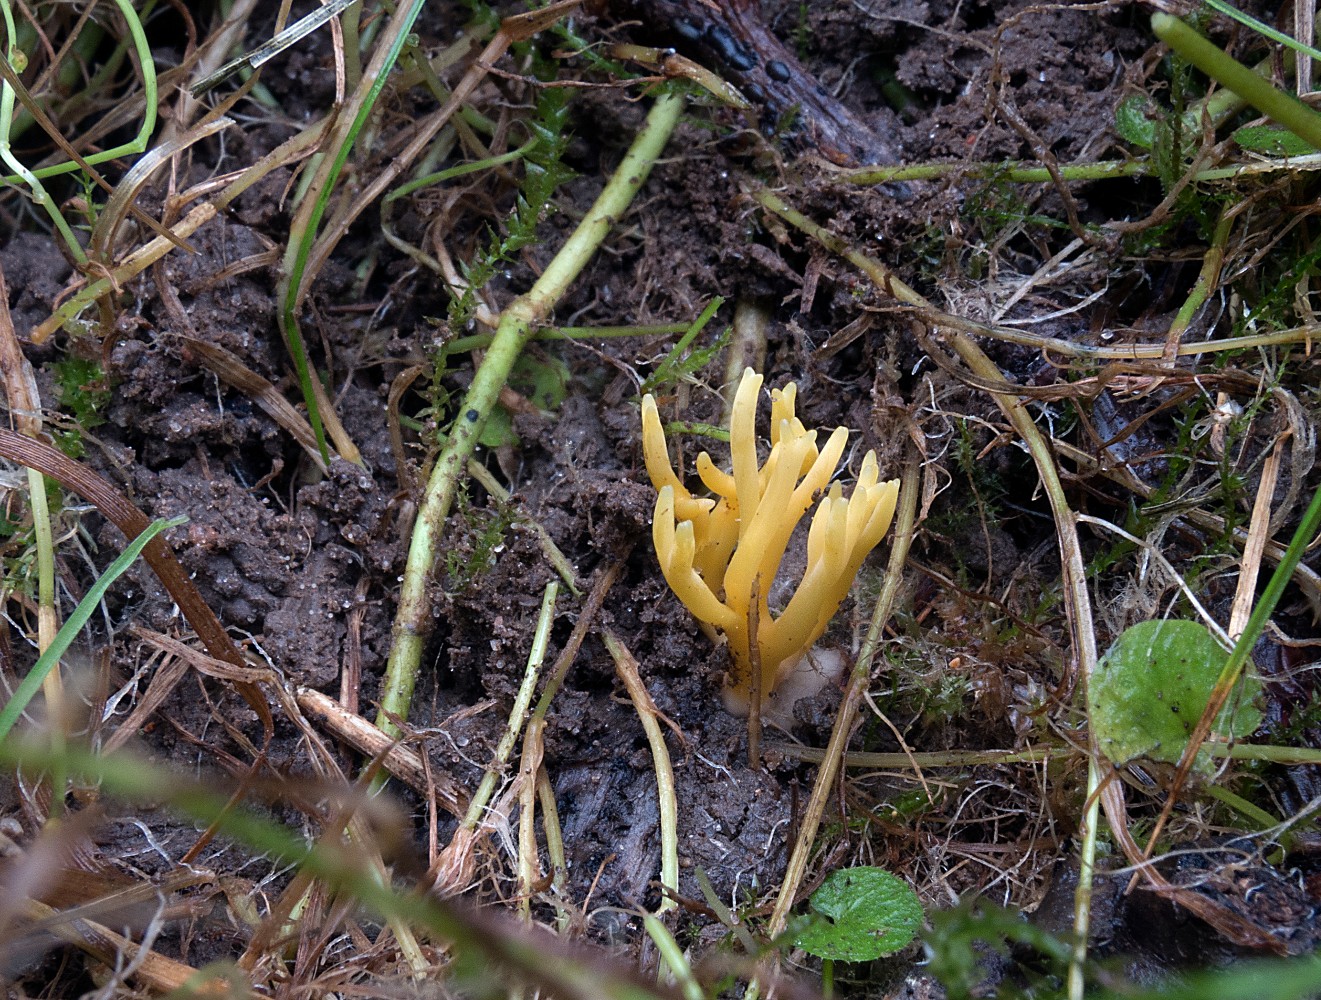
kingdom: Fungi
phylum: Basidiomycota
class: Agaricomycetes
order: Agaricales
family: Clavariaceae
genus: Clavulinopsis
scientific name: Clavulinopsis corniculata
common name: eng-køllesvamp
